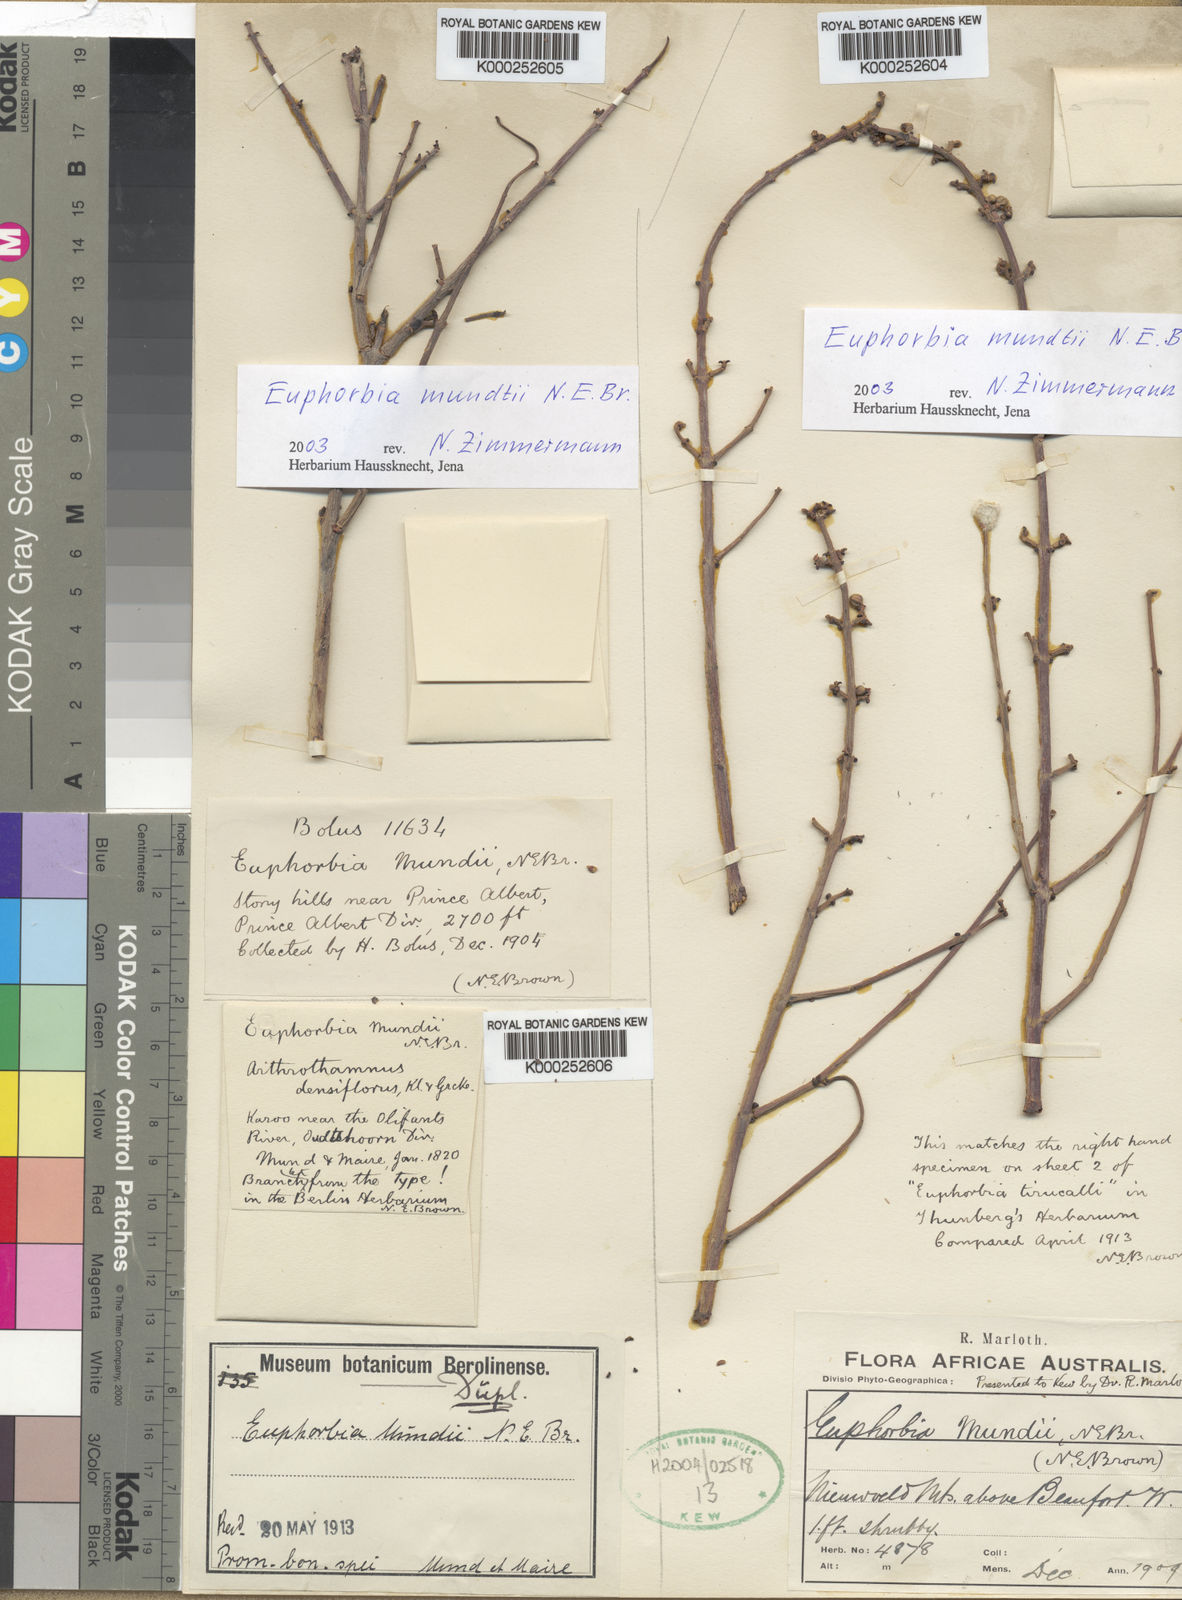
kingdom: Plantae
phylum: Tracheophyta
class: Magnoliopsida
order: Malpighiales
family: Euphorbiaceae
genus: Euphorbia
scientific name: Euphorbia rhombifolia
